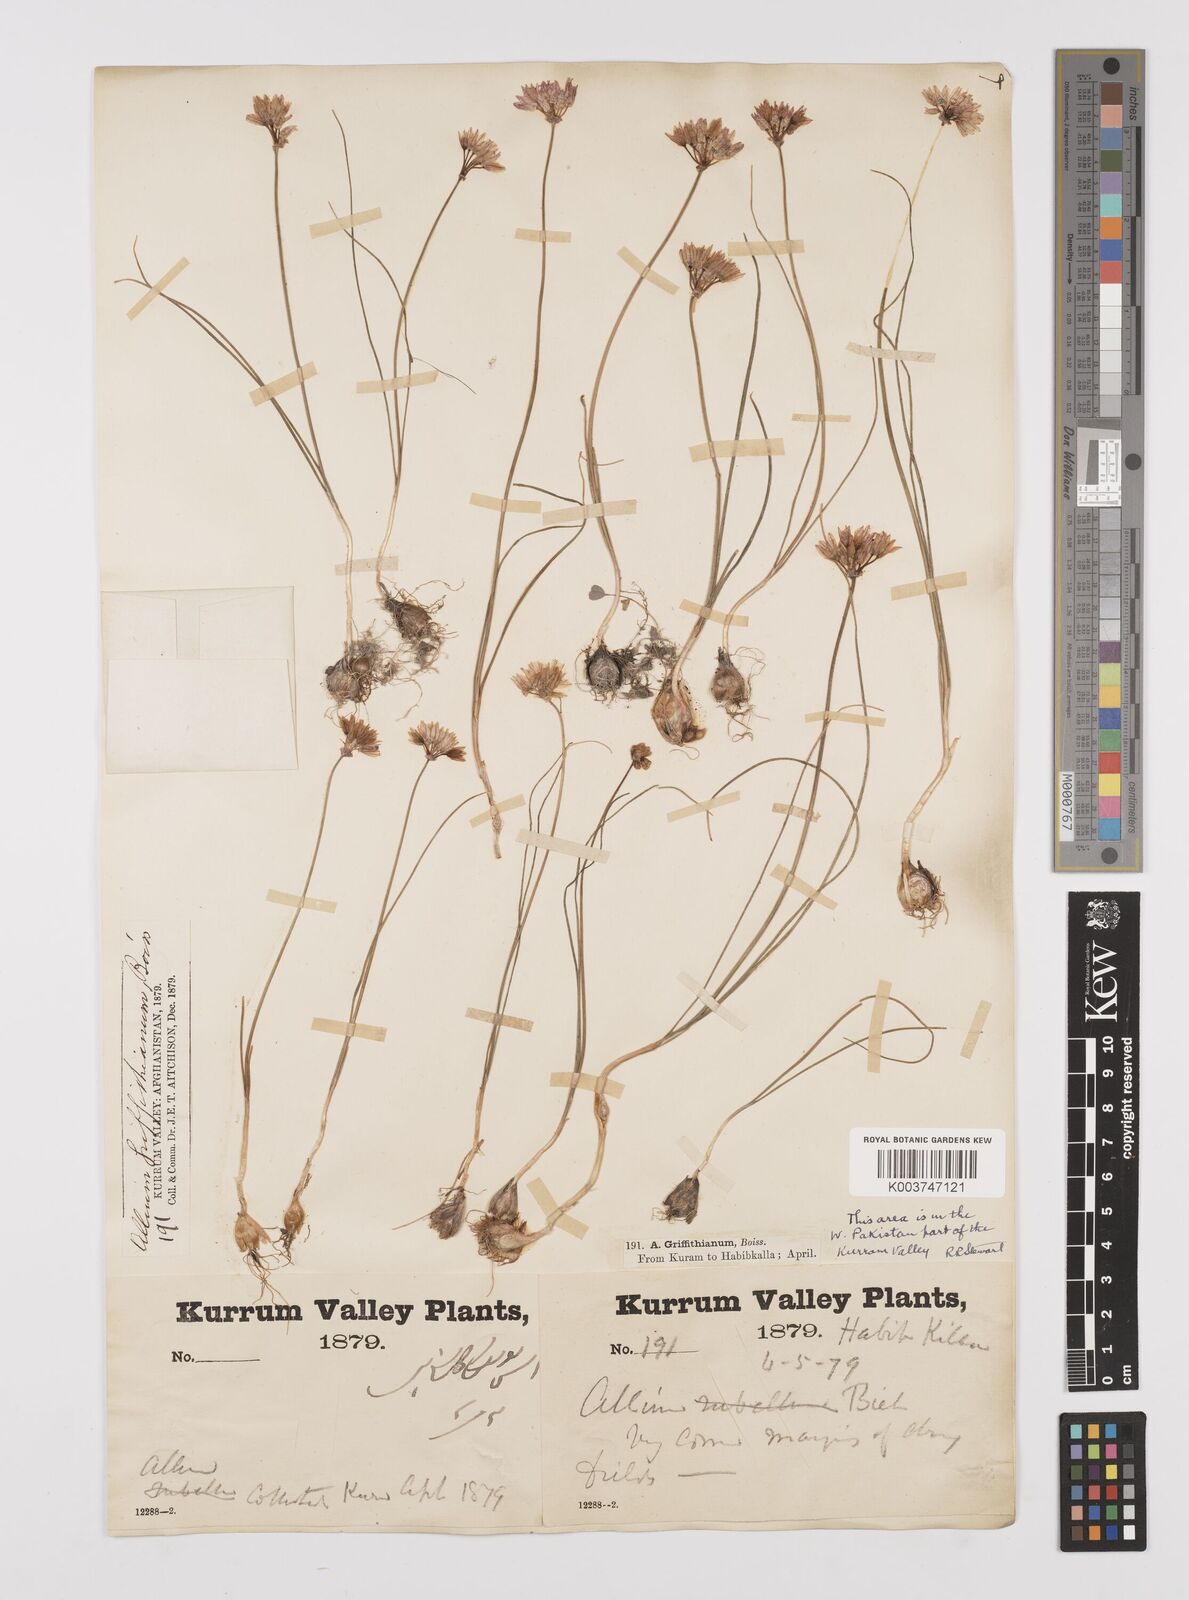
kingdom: Plantae
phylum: Tracheophyta
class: Liliopsida
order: Asparagales
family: Amaryllidaceae
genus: Allium
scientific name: Allium griffithianum
